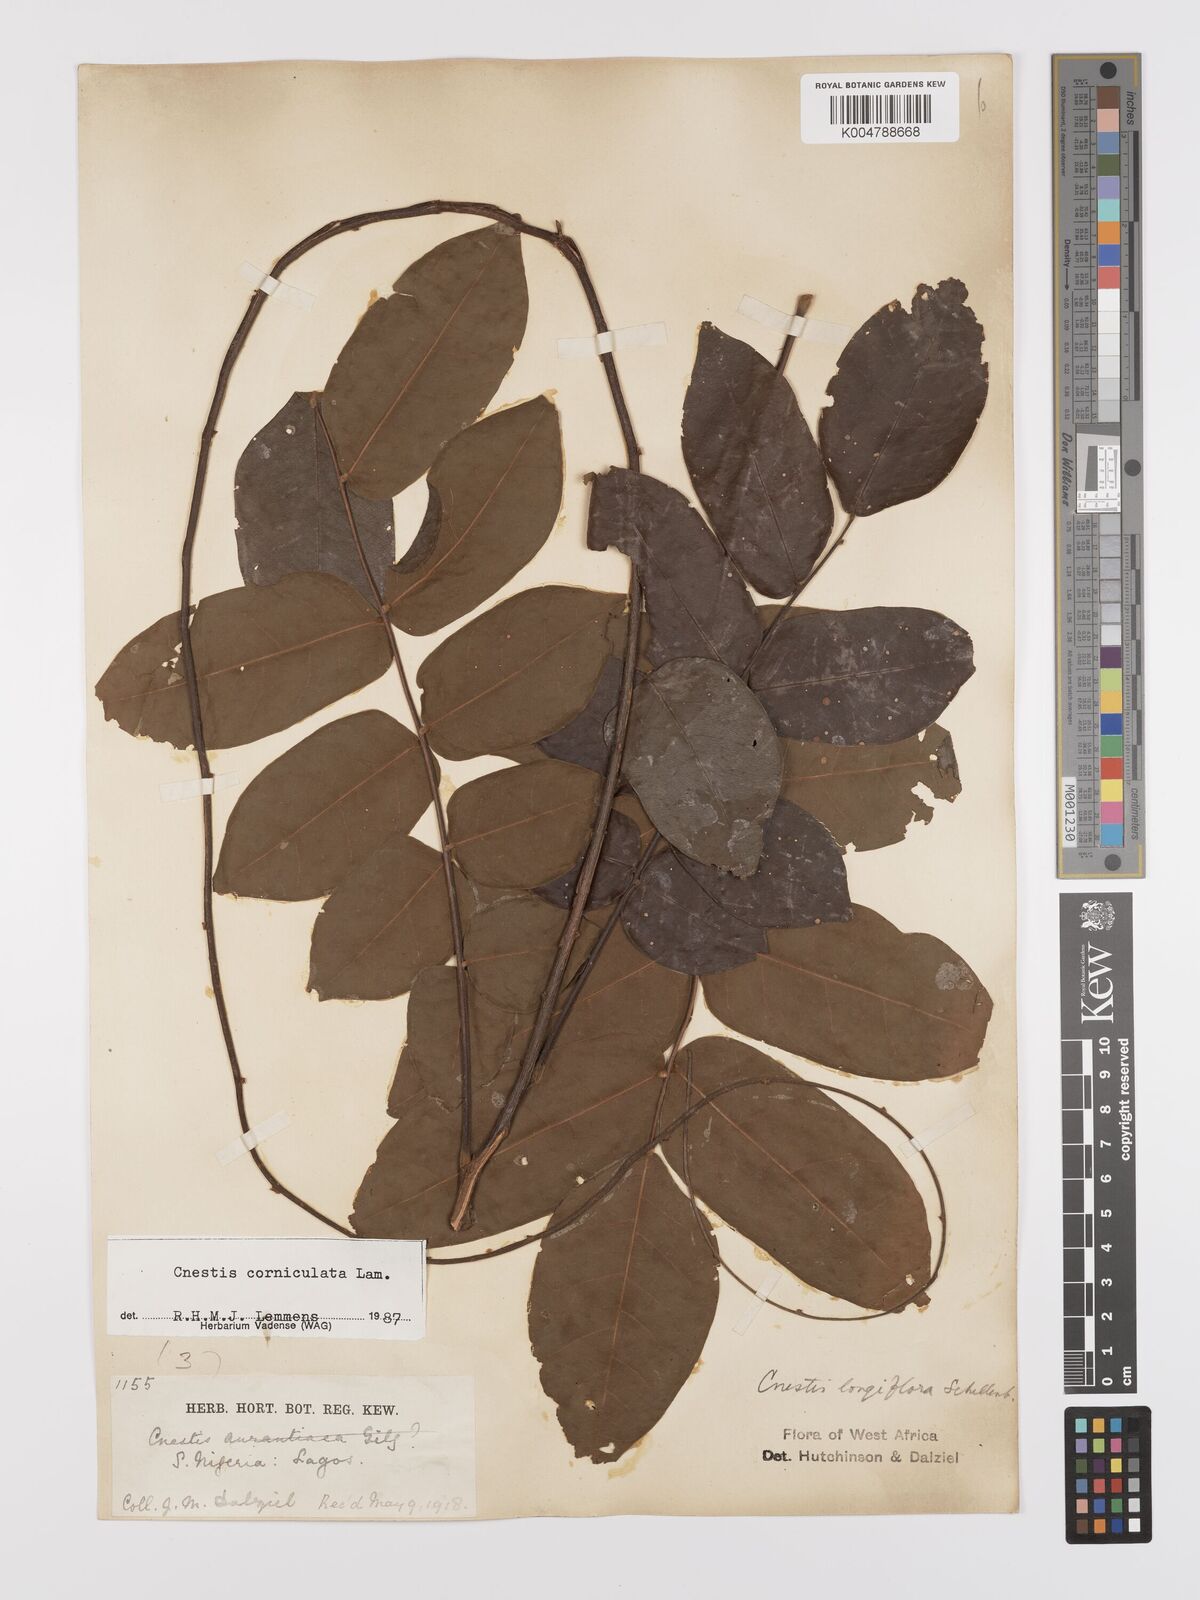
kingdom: Plantae
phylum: Tracheophyta
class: Magnoliopsida
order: Oxalidales
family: Connaraceae
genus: Cnestis
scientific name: Cnestis corniculata
